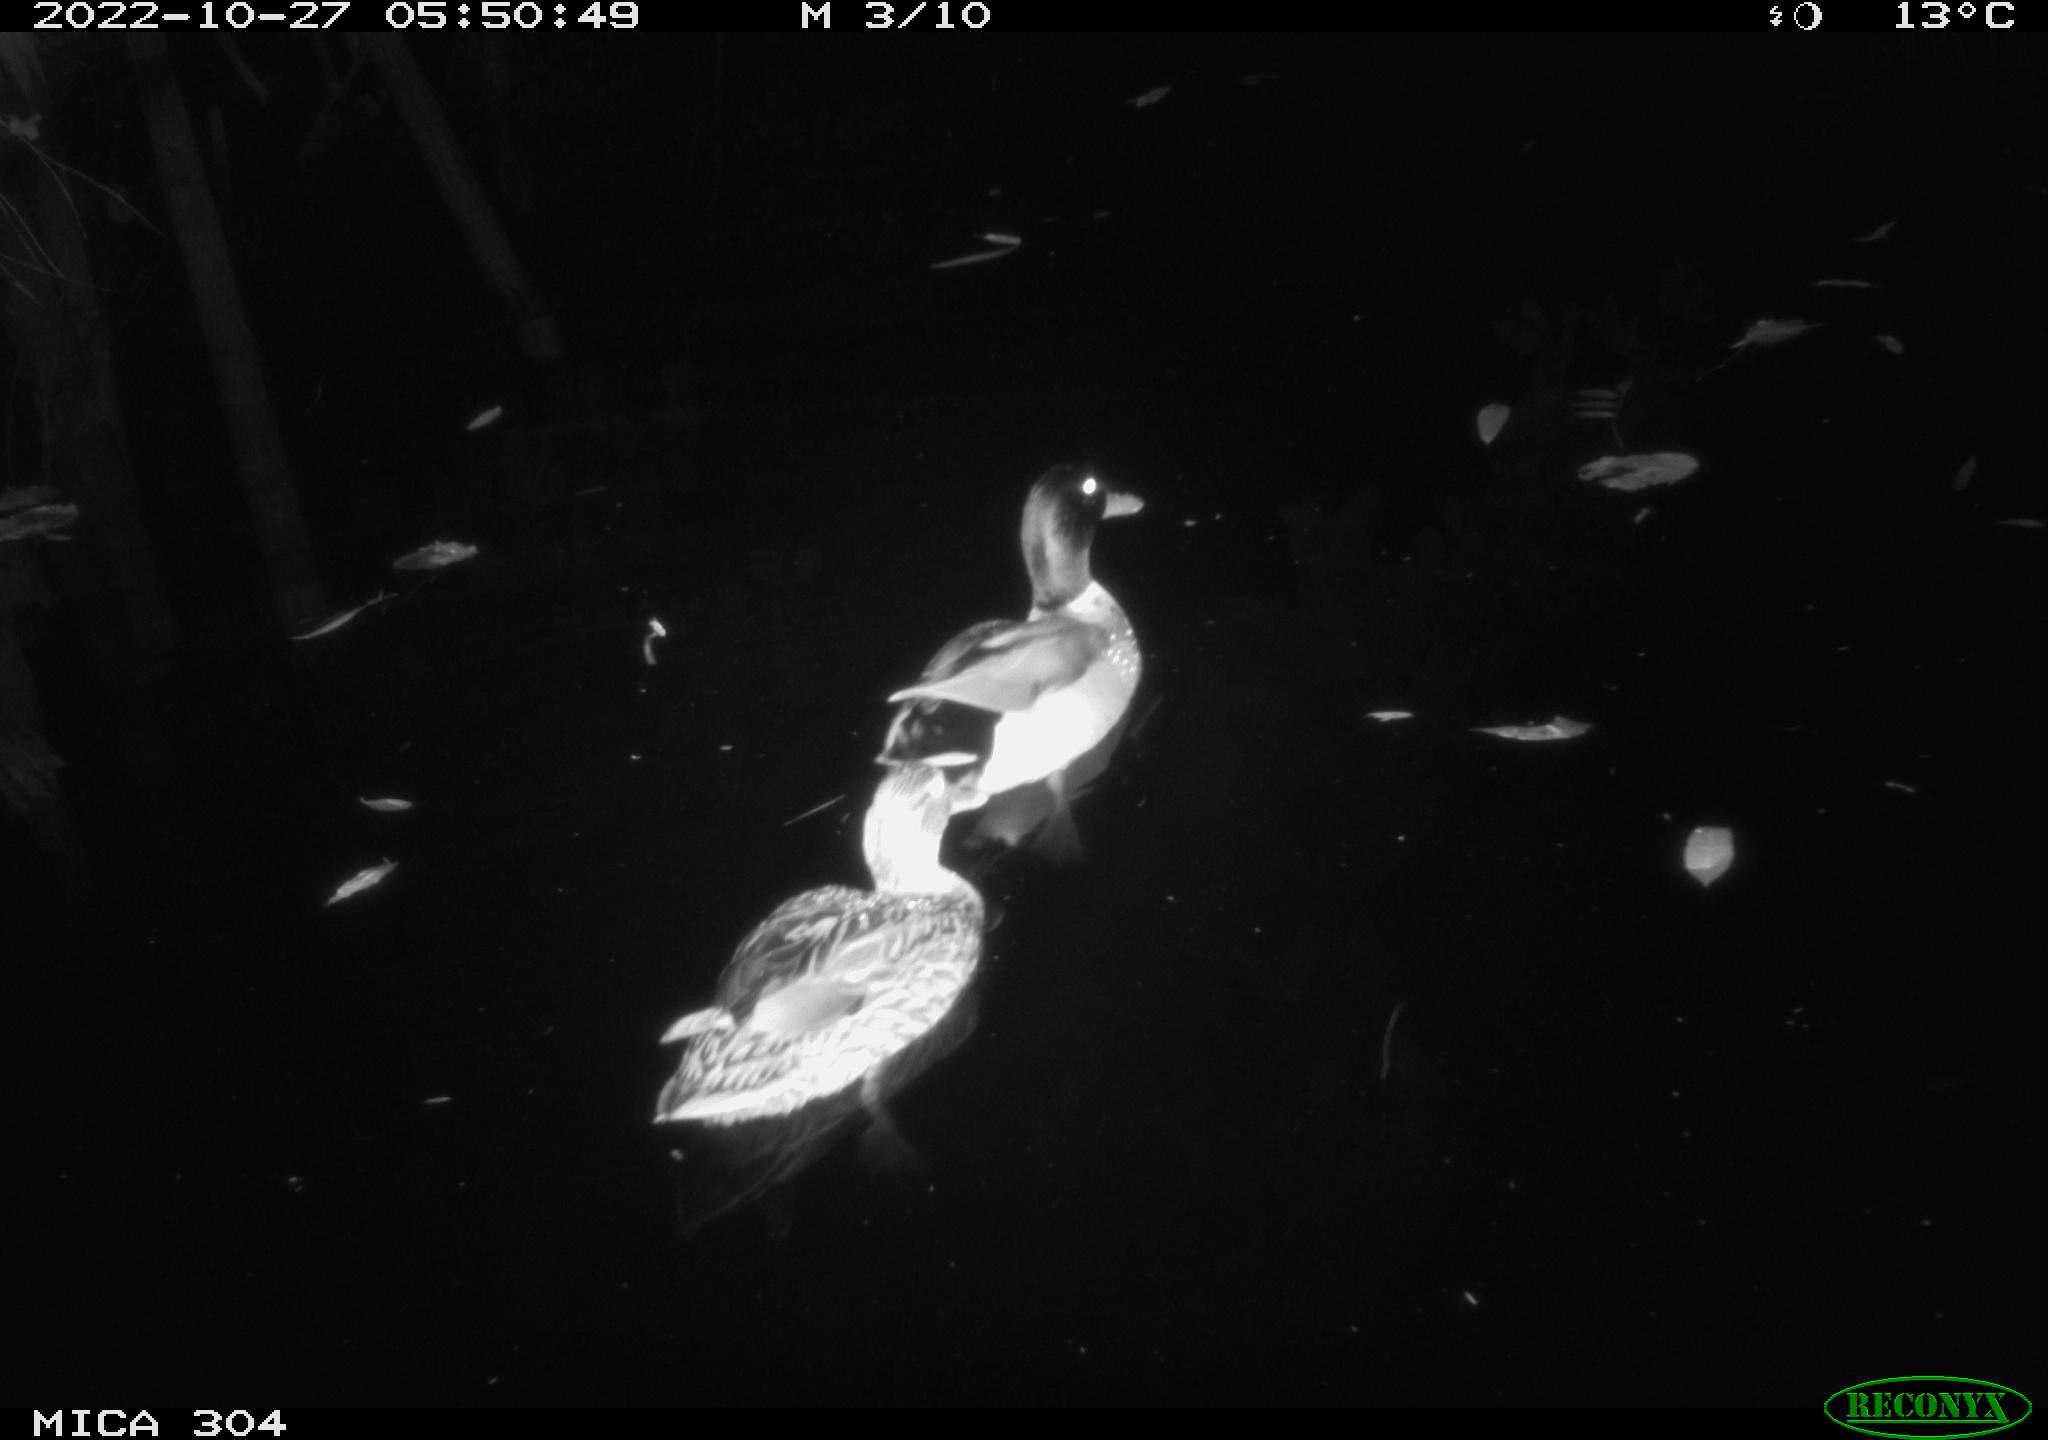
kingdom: Animalia
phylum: Chordata
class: Aves
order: Anseriformes
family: Anatidae
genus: Anas
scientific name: Anas
